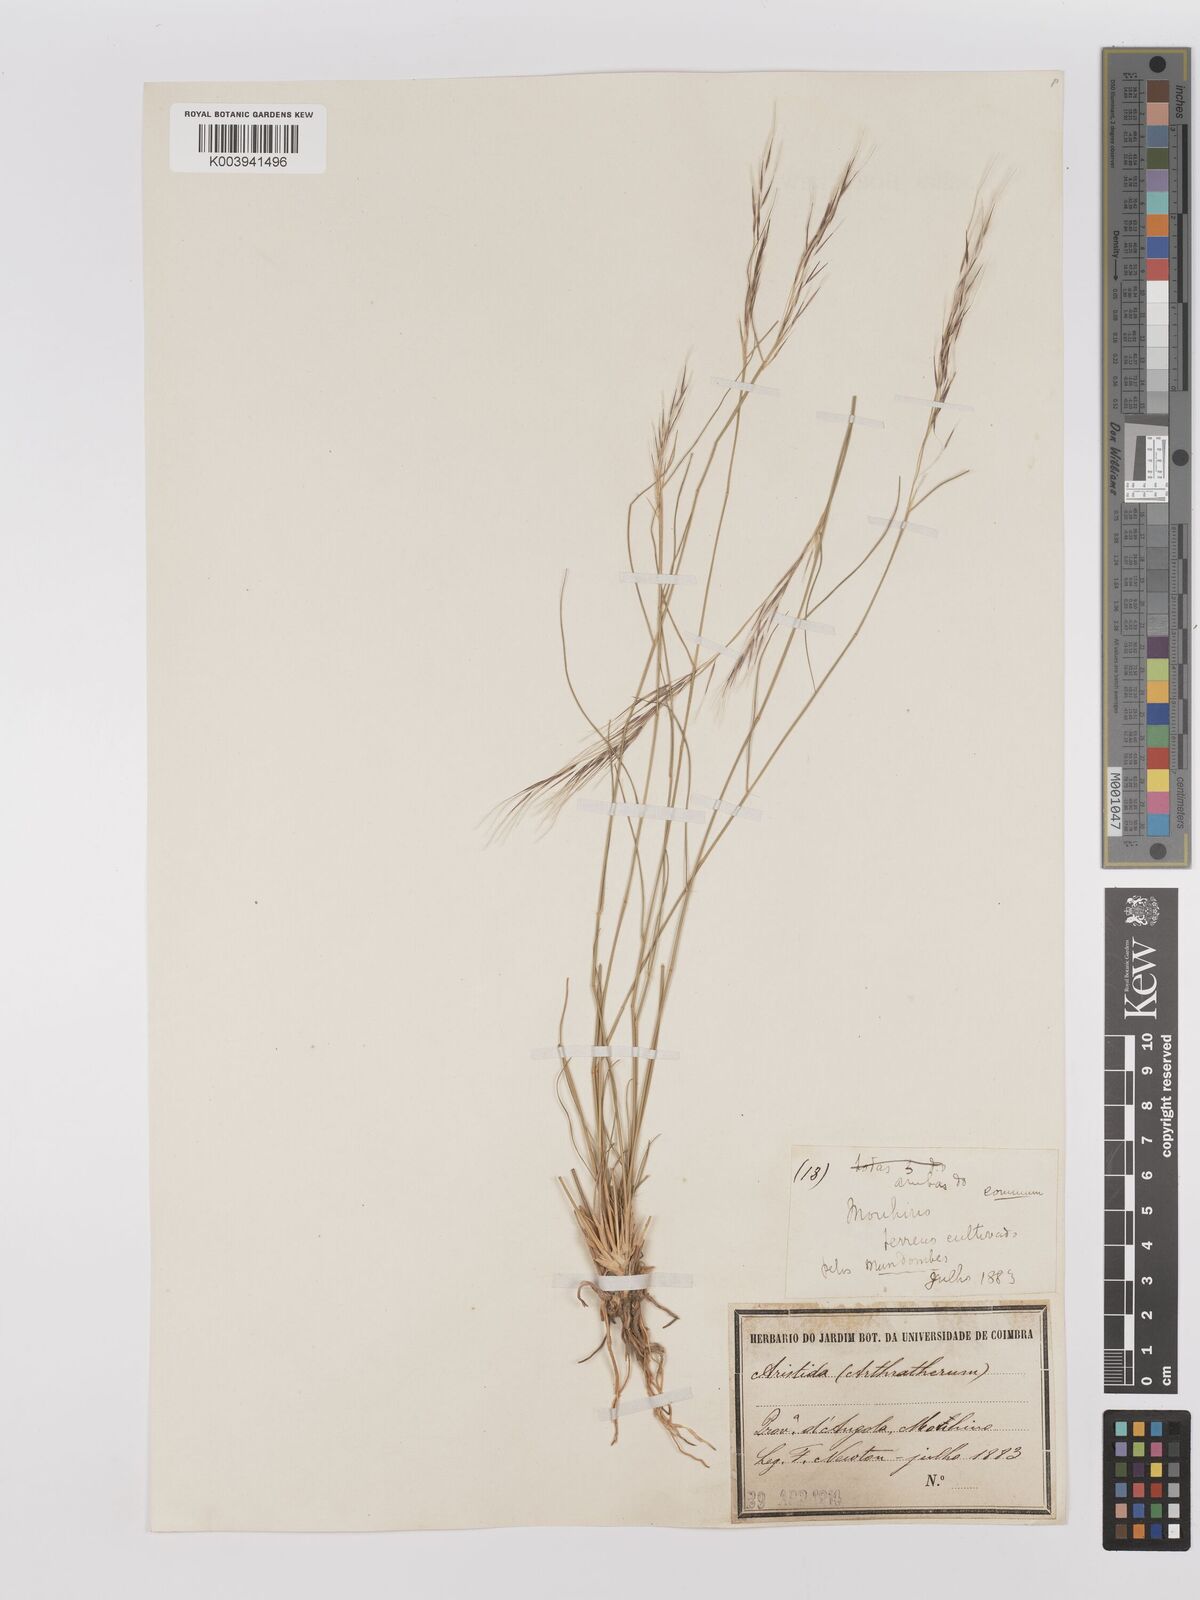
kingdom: Plantae
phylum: Tracheophyta
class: Liliopsida
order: Poales
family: Poaceae
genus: Stipagrostis
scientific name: Stipagrostis uniplumis
